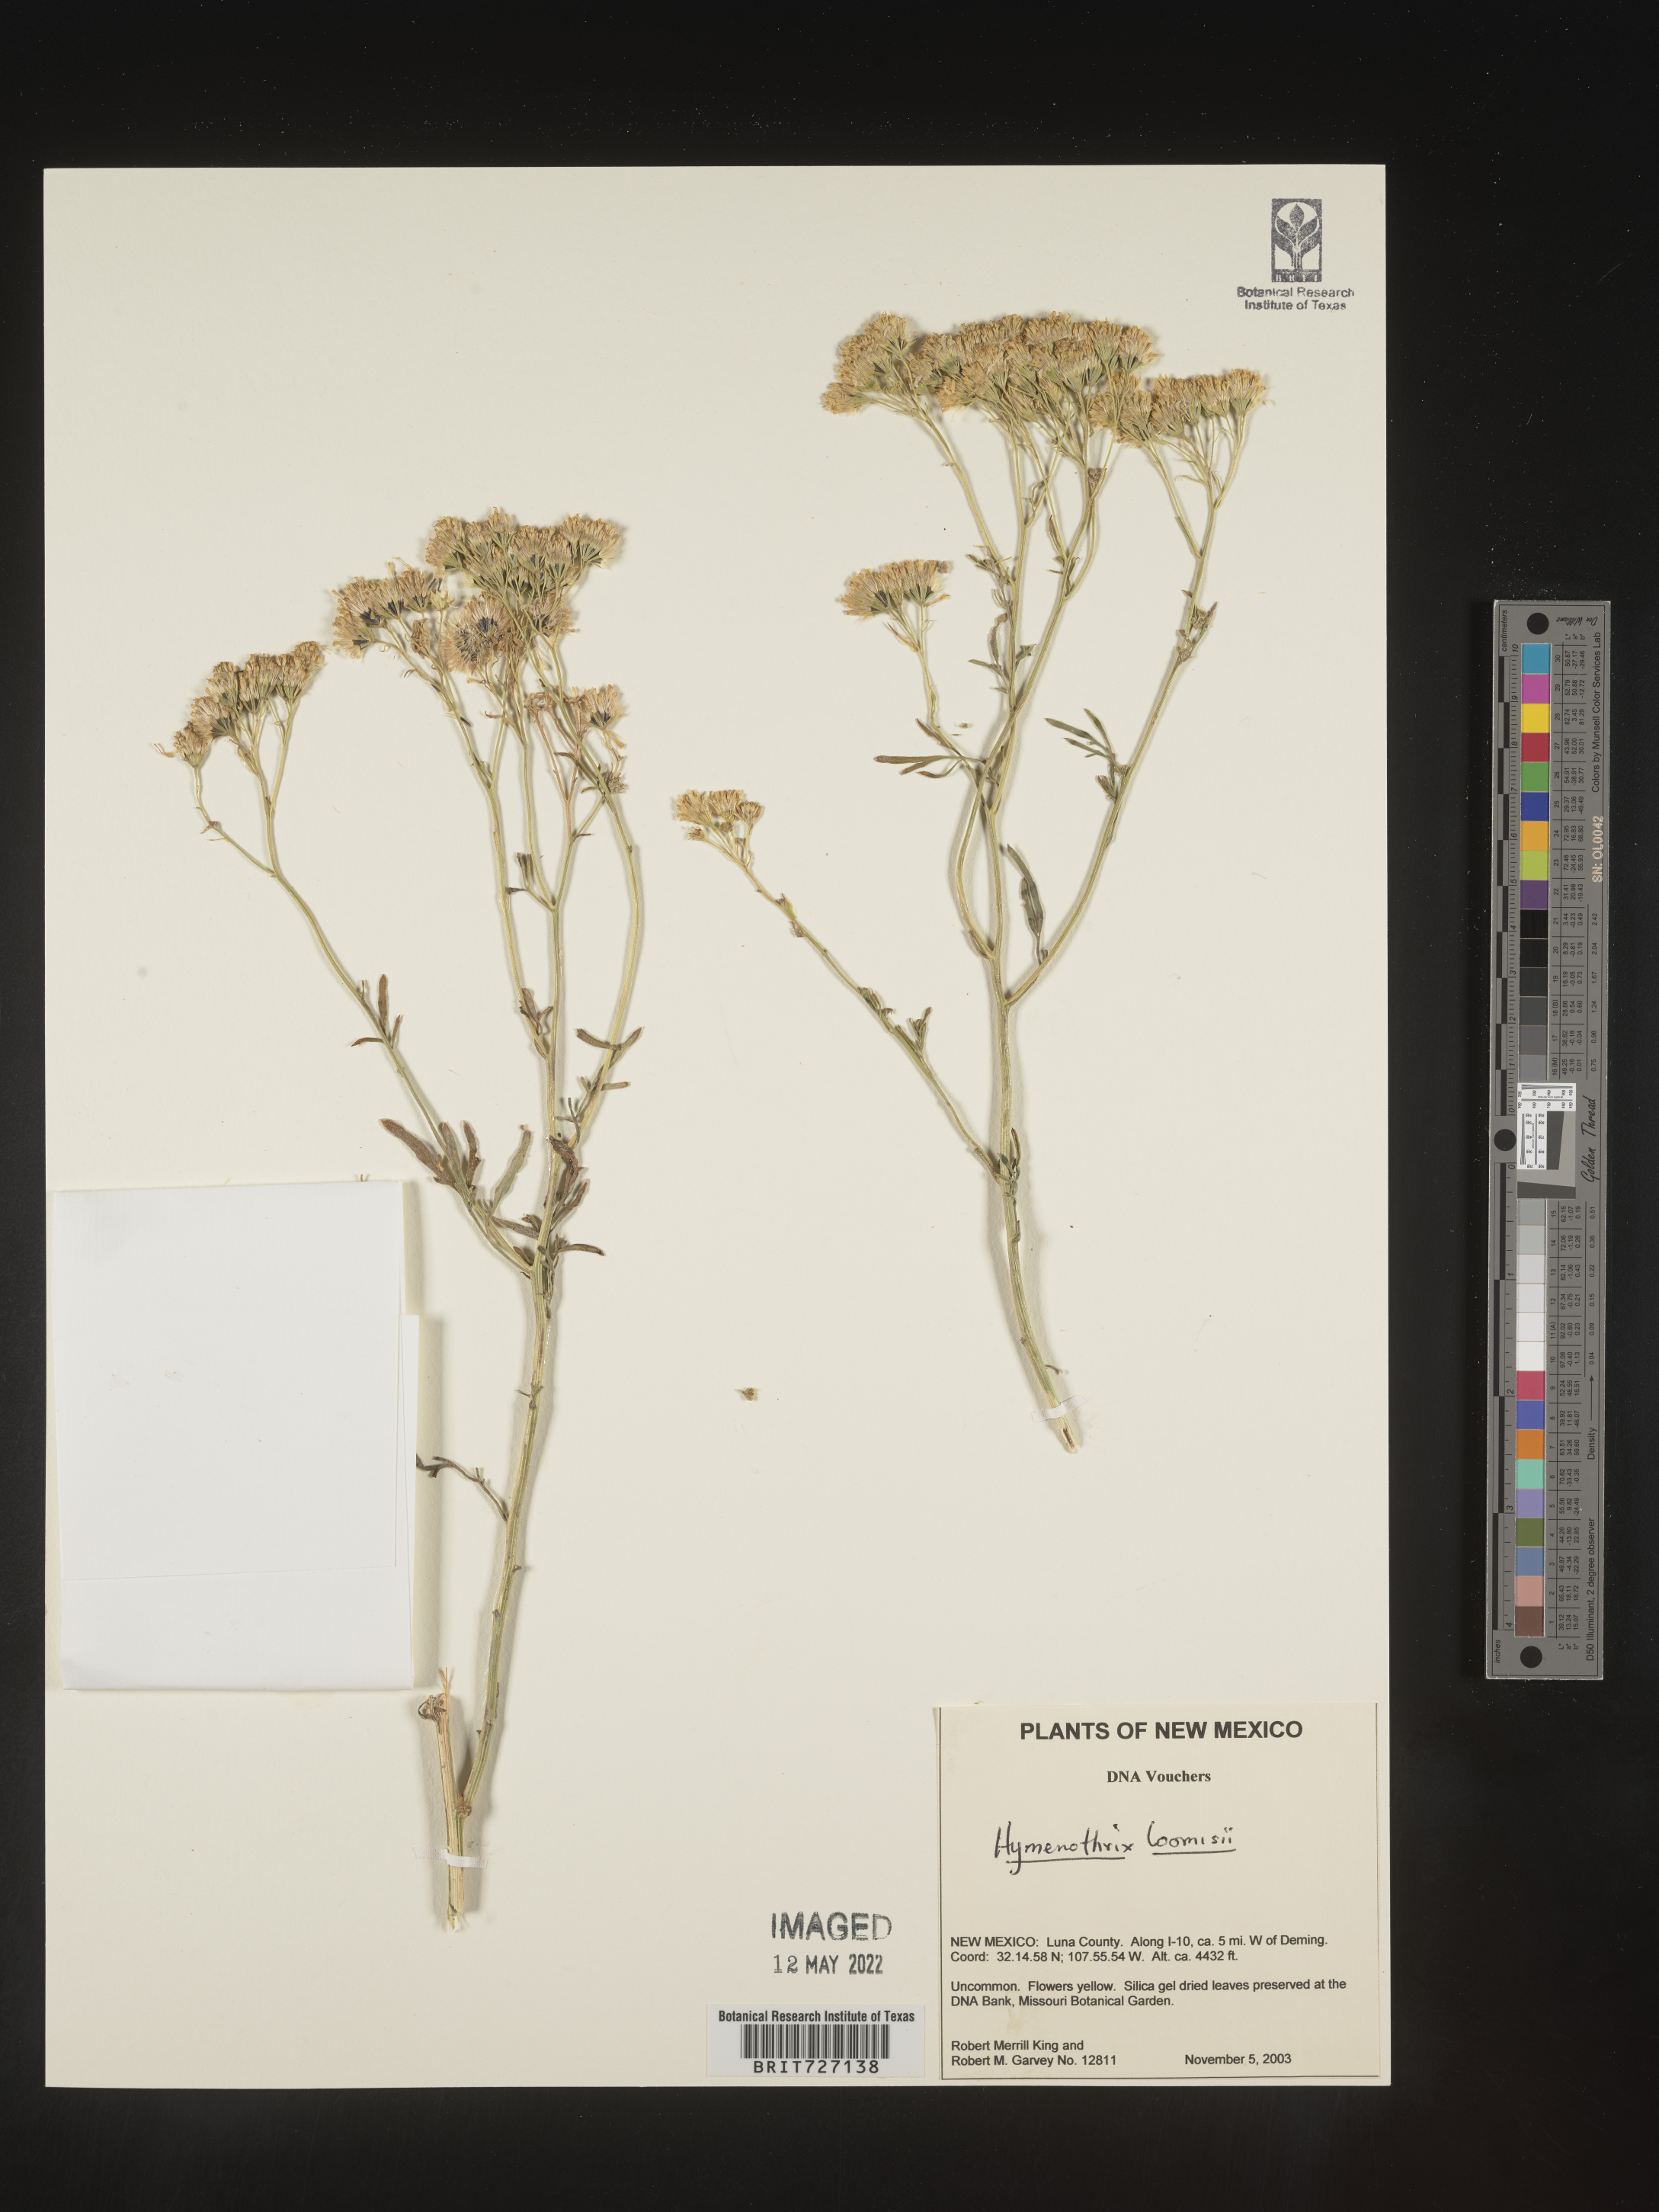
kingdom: Plantae
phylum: Tracheophyta
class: Magnoliopsida
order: Asterales
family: Asteraceae
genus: Hymenothrix
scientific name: Hymenothrix loomisii
